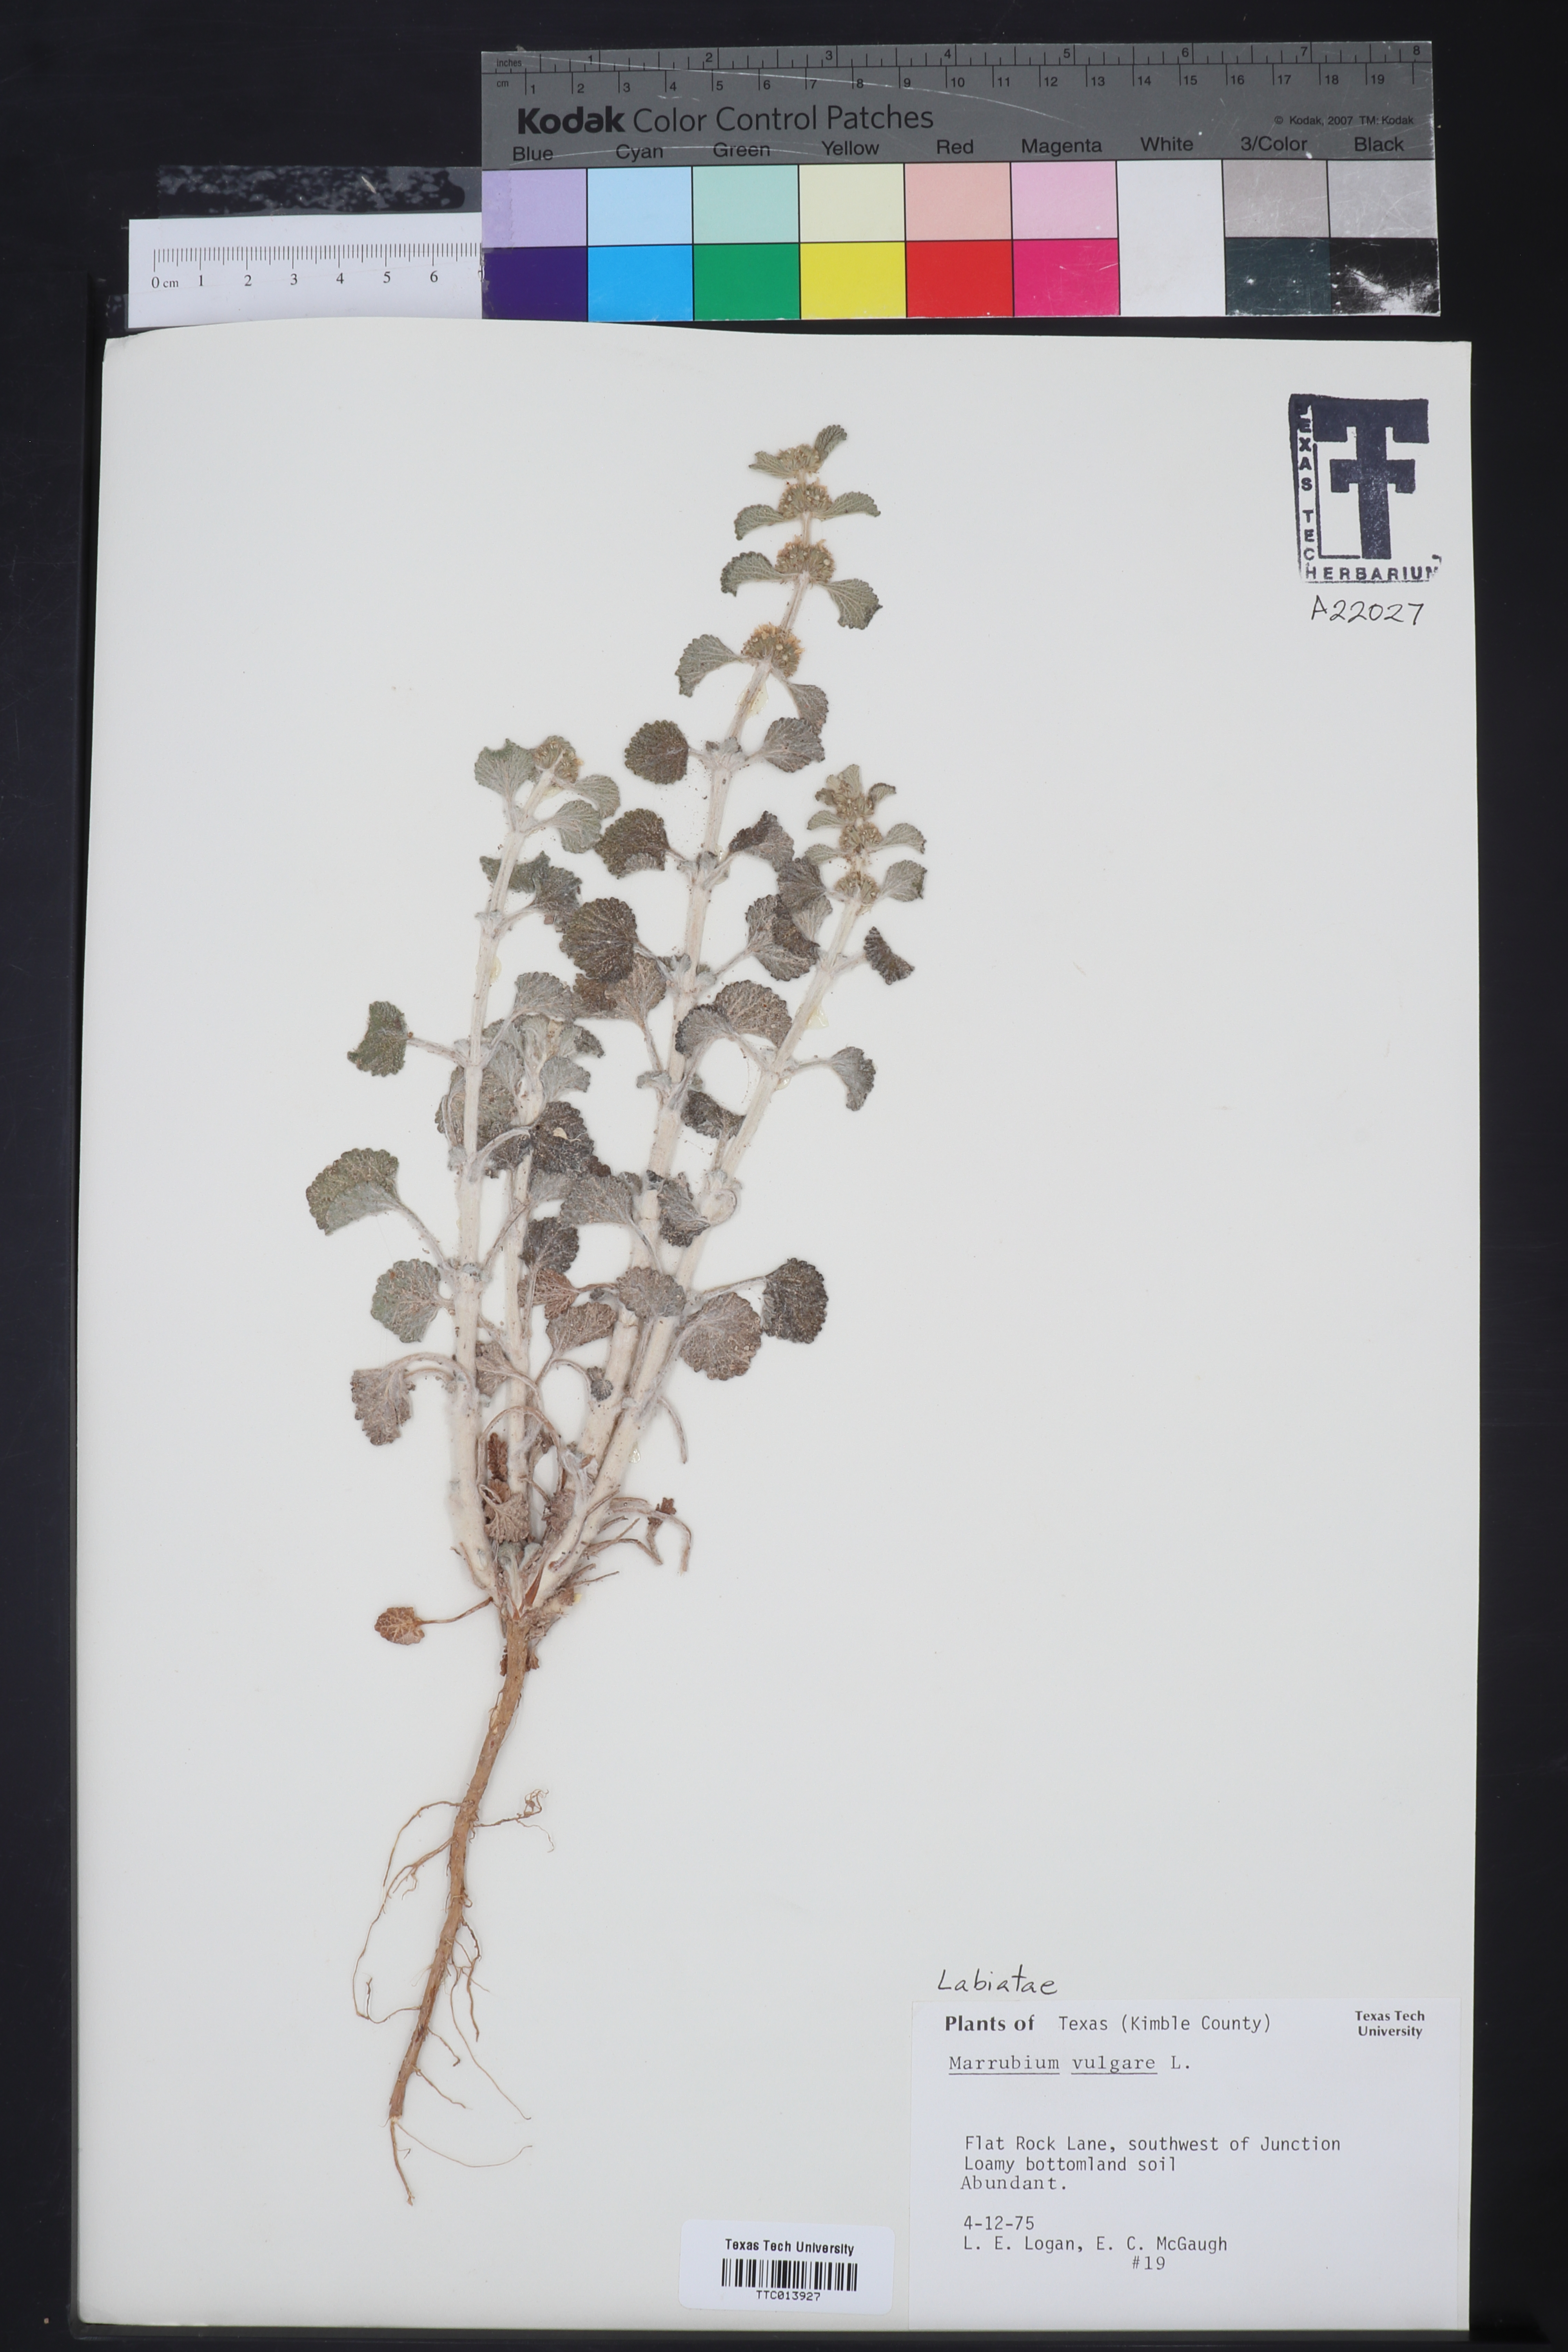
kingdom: Plantae
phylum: Tracheophyta
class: Magnoliopsida
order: Lamiales
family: Lamiaceae
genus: Marrubium
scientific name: Marrubium vulgare
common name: Horehound
